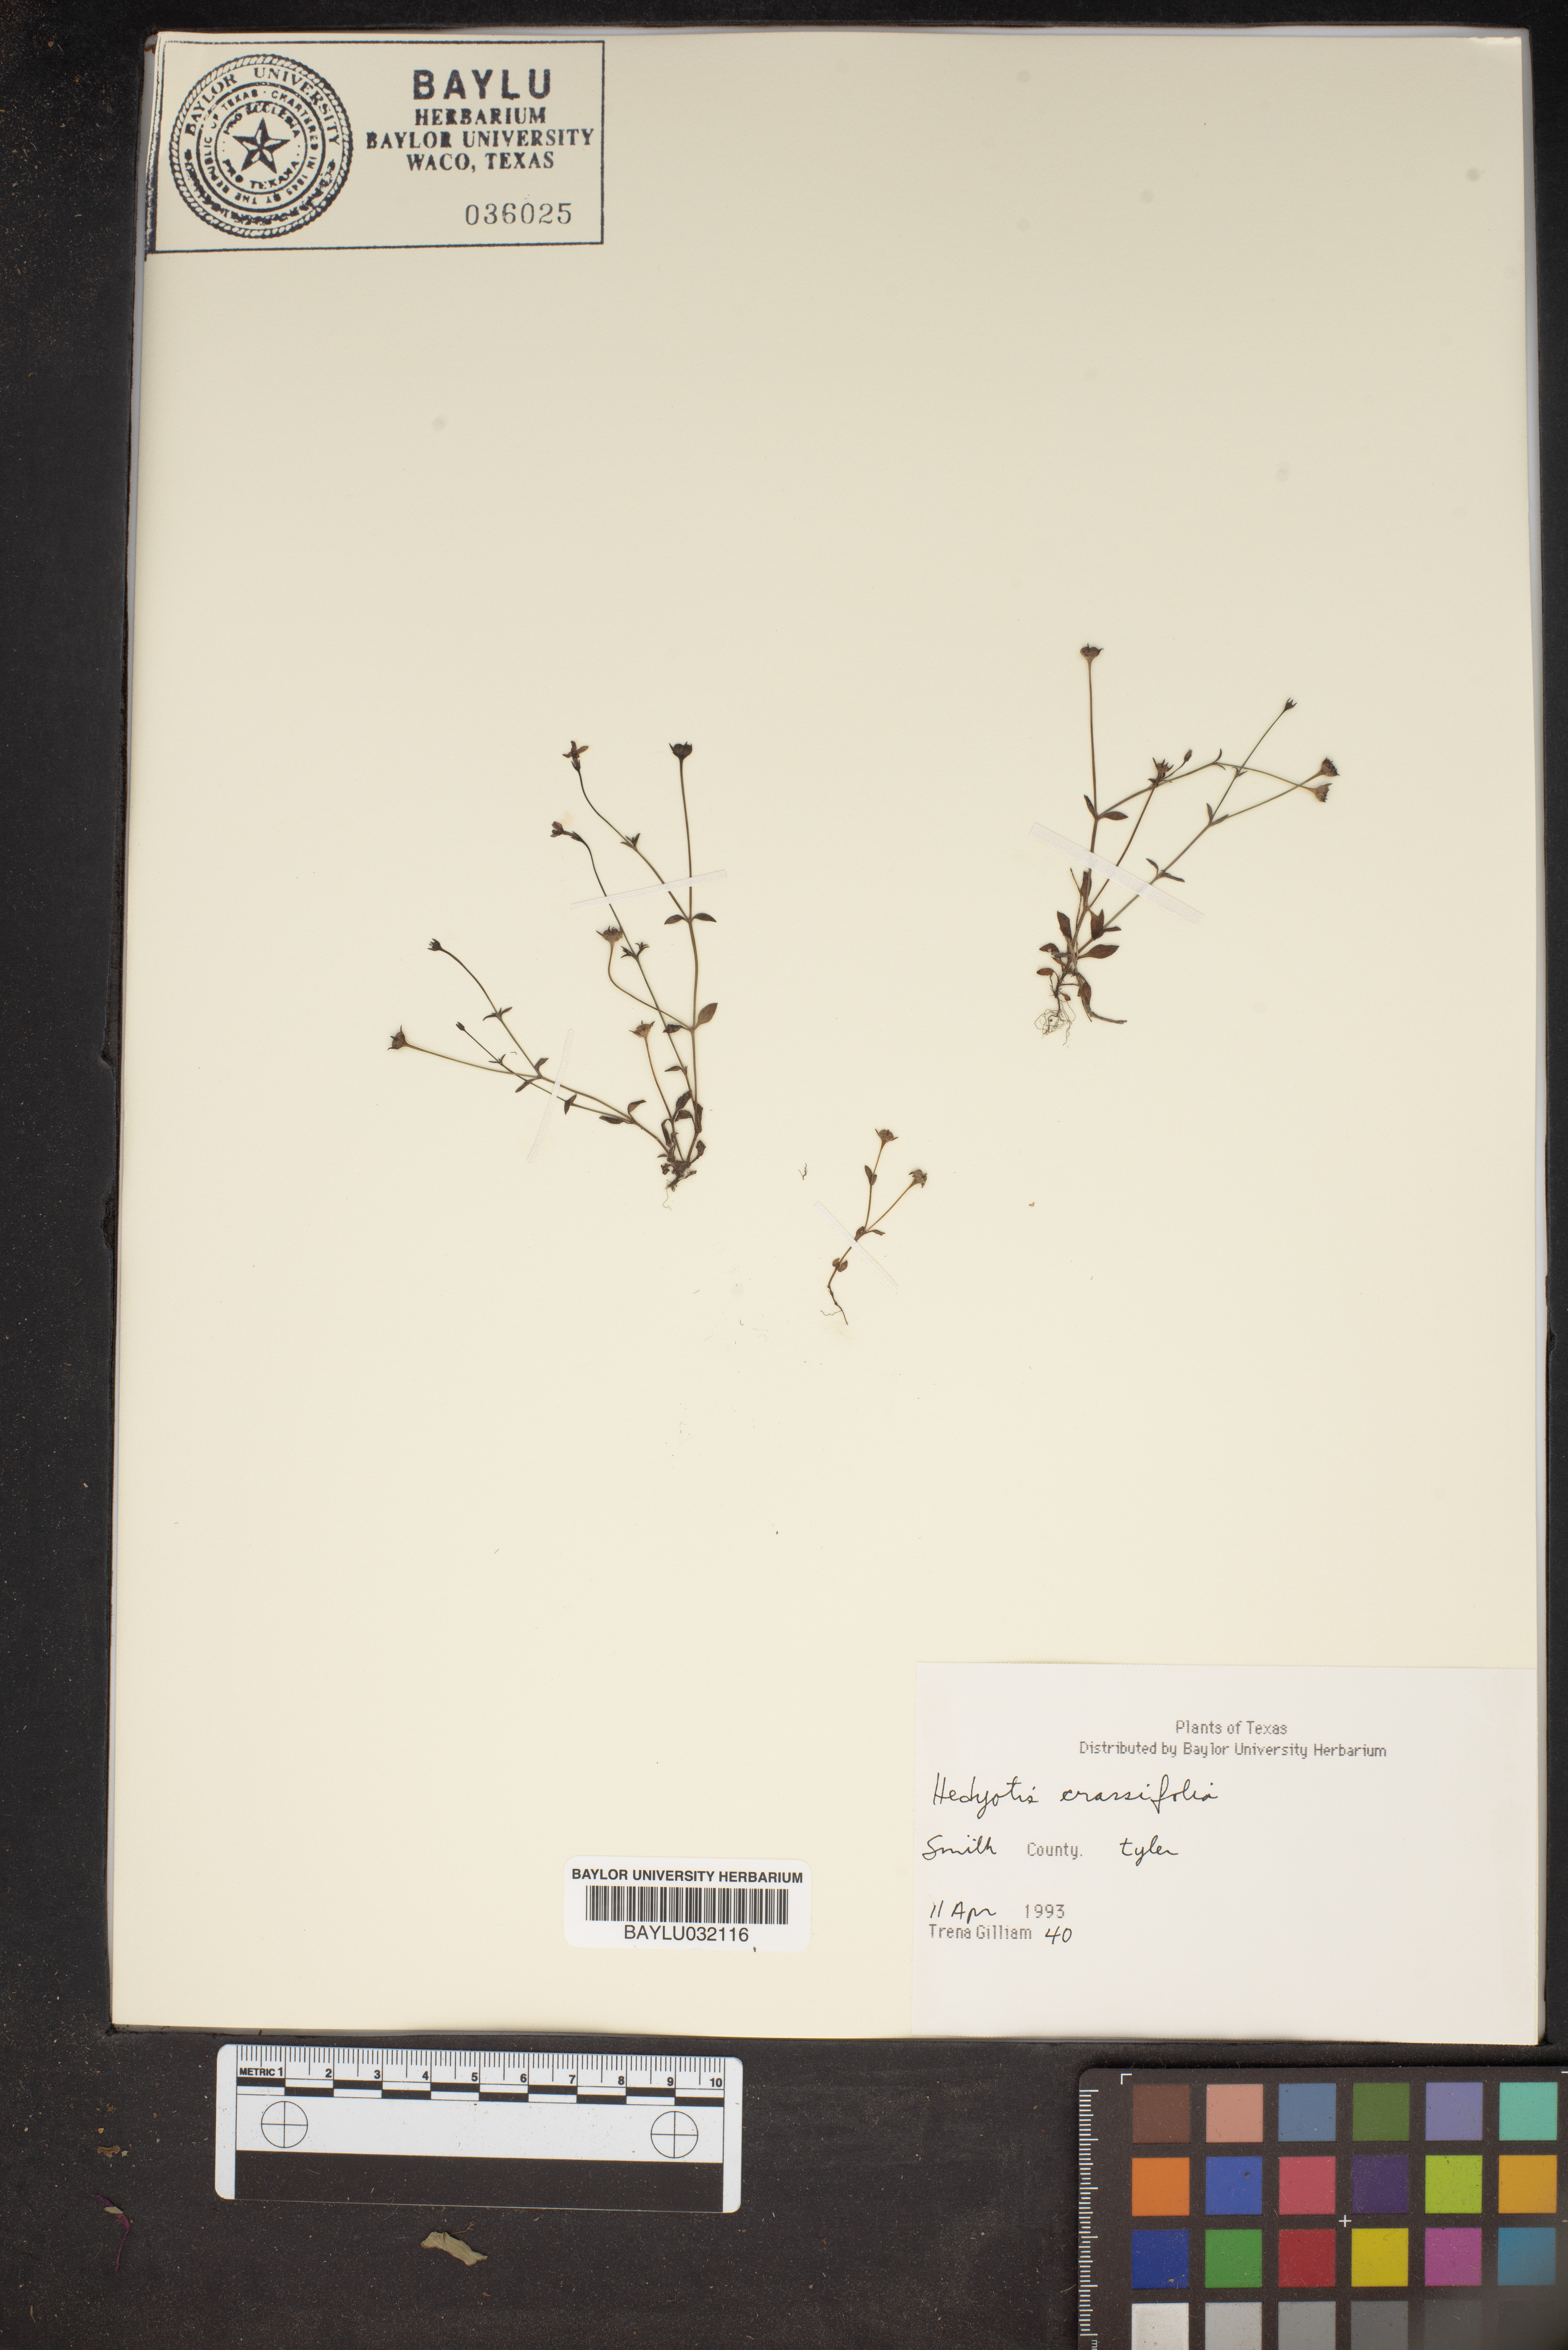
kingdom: Plantae
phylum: Tracheophyta
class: Magnoliopsida
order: Gentianales
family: Rubiaceae
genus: Houstonia
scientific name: Houstonia pusilla
